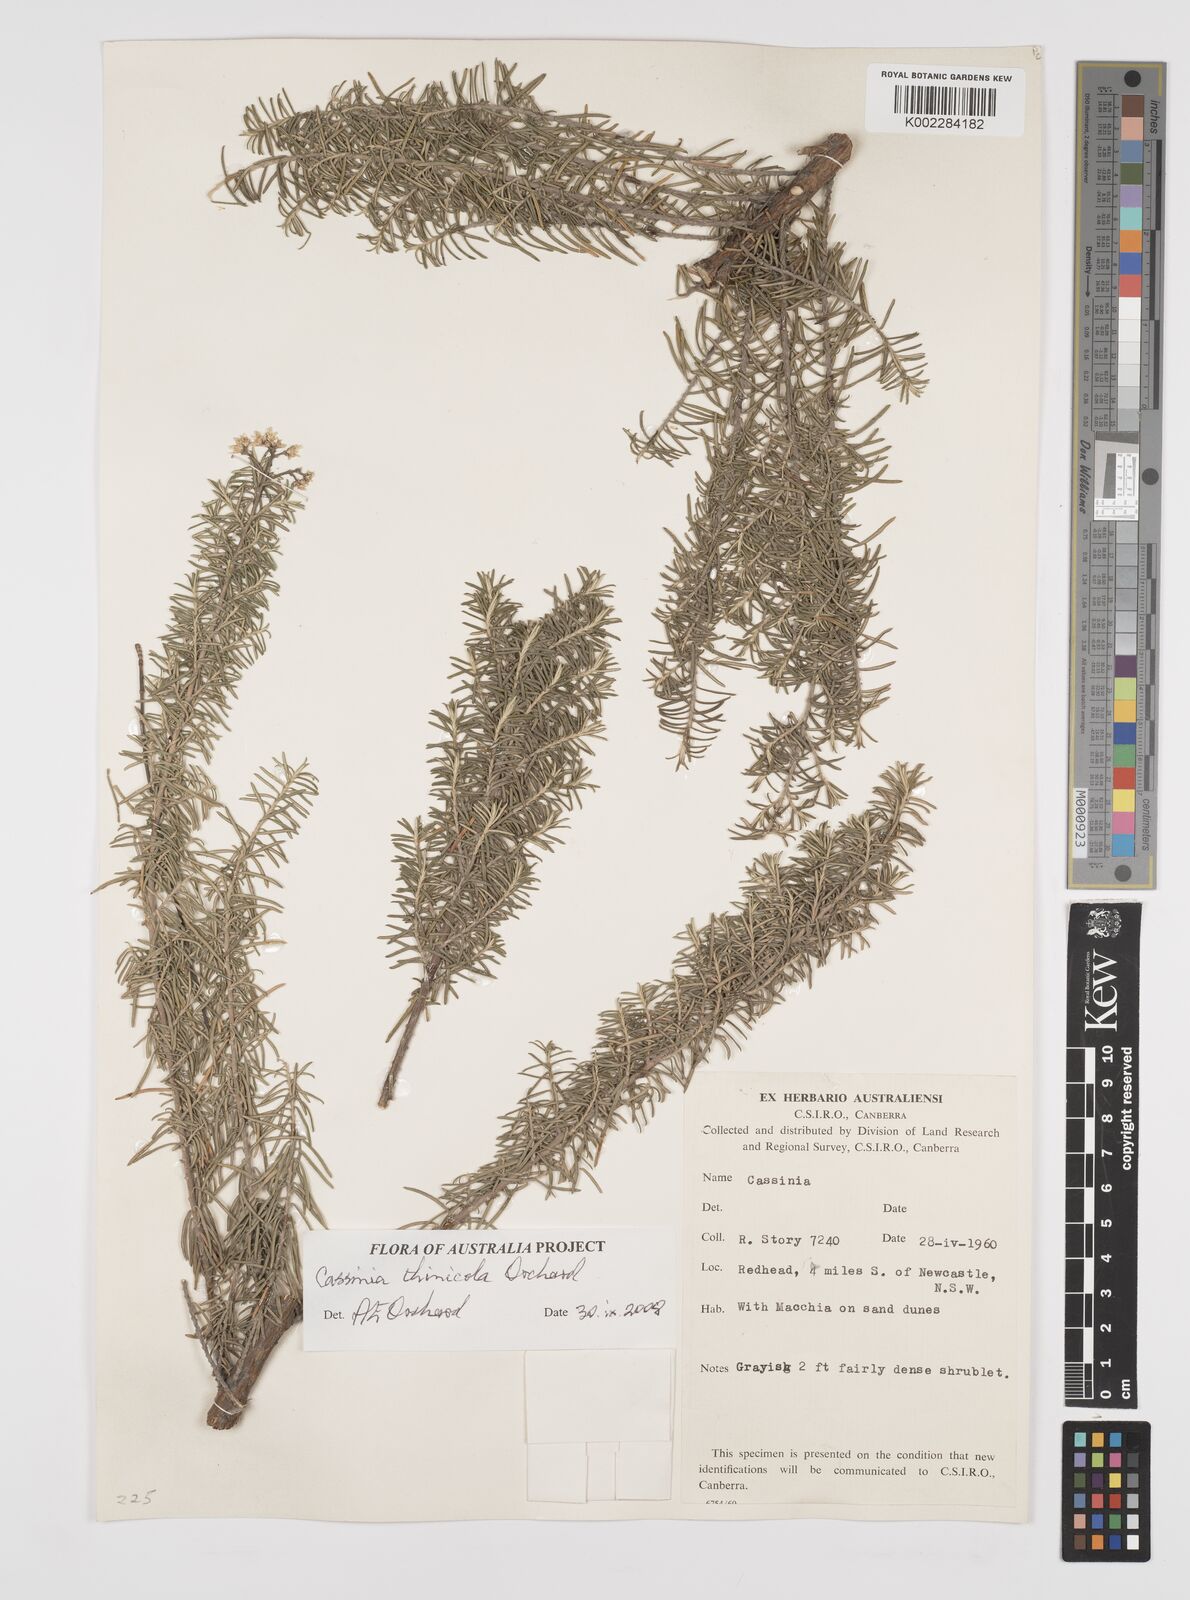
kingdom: Plantae
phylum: Tracheophyta
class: Magnoliopsida
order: Asterales
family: Asteraceae
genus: Cassinia
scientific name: Cassinia thinicola
